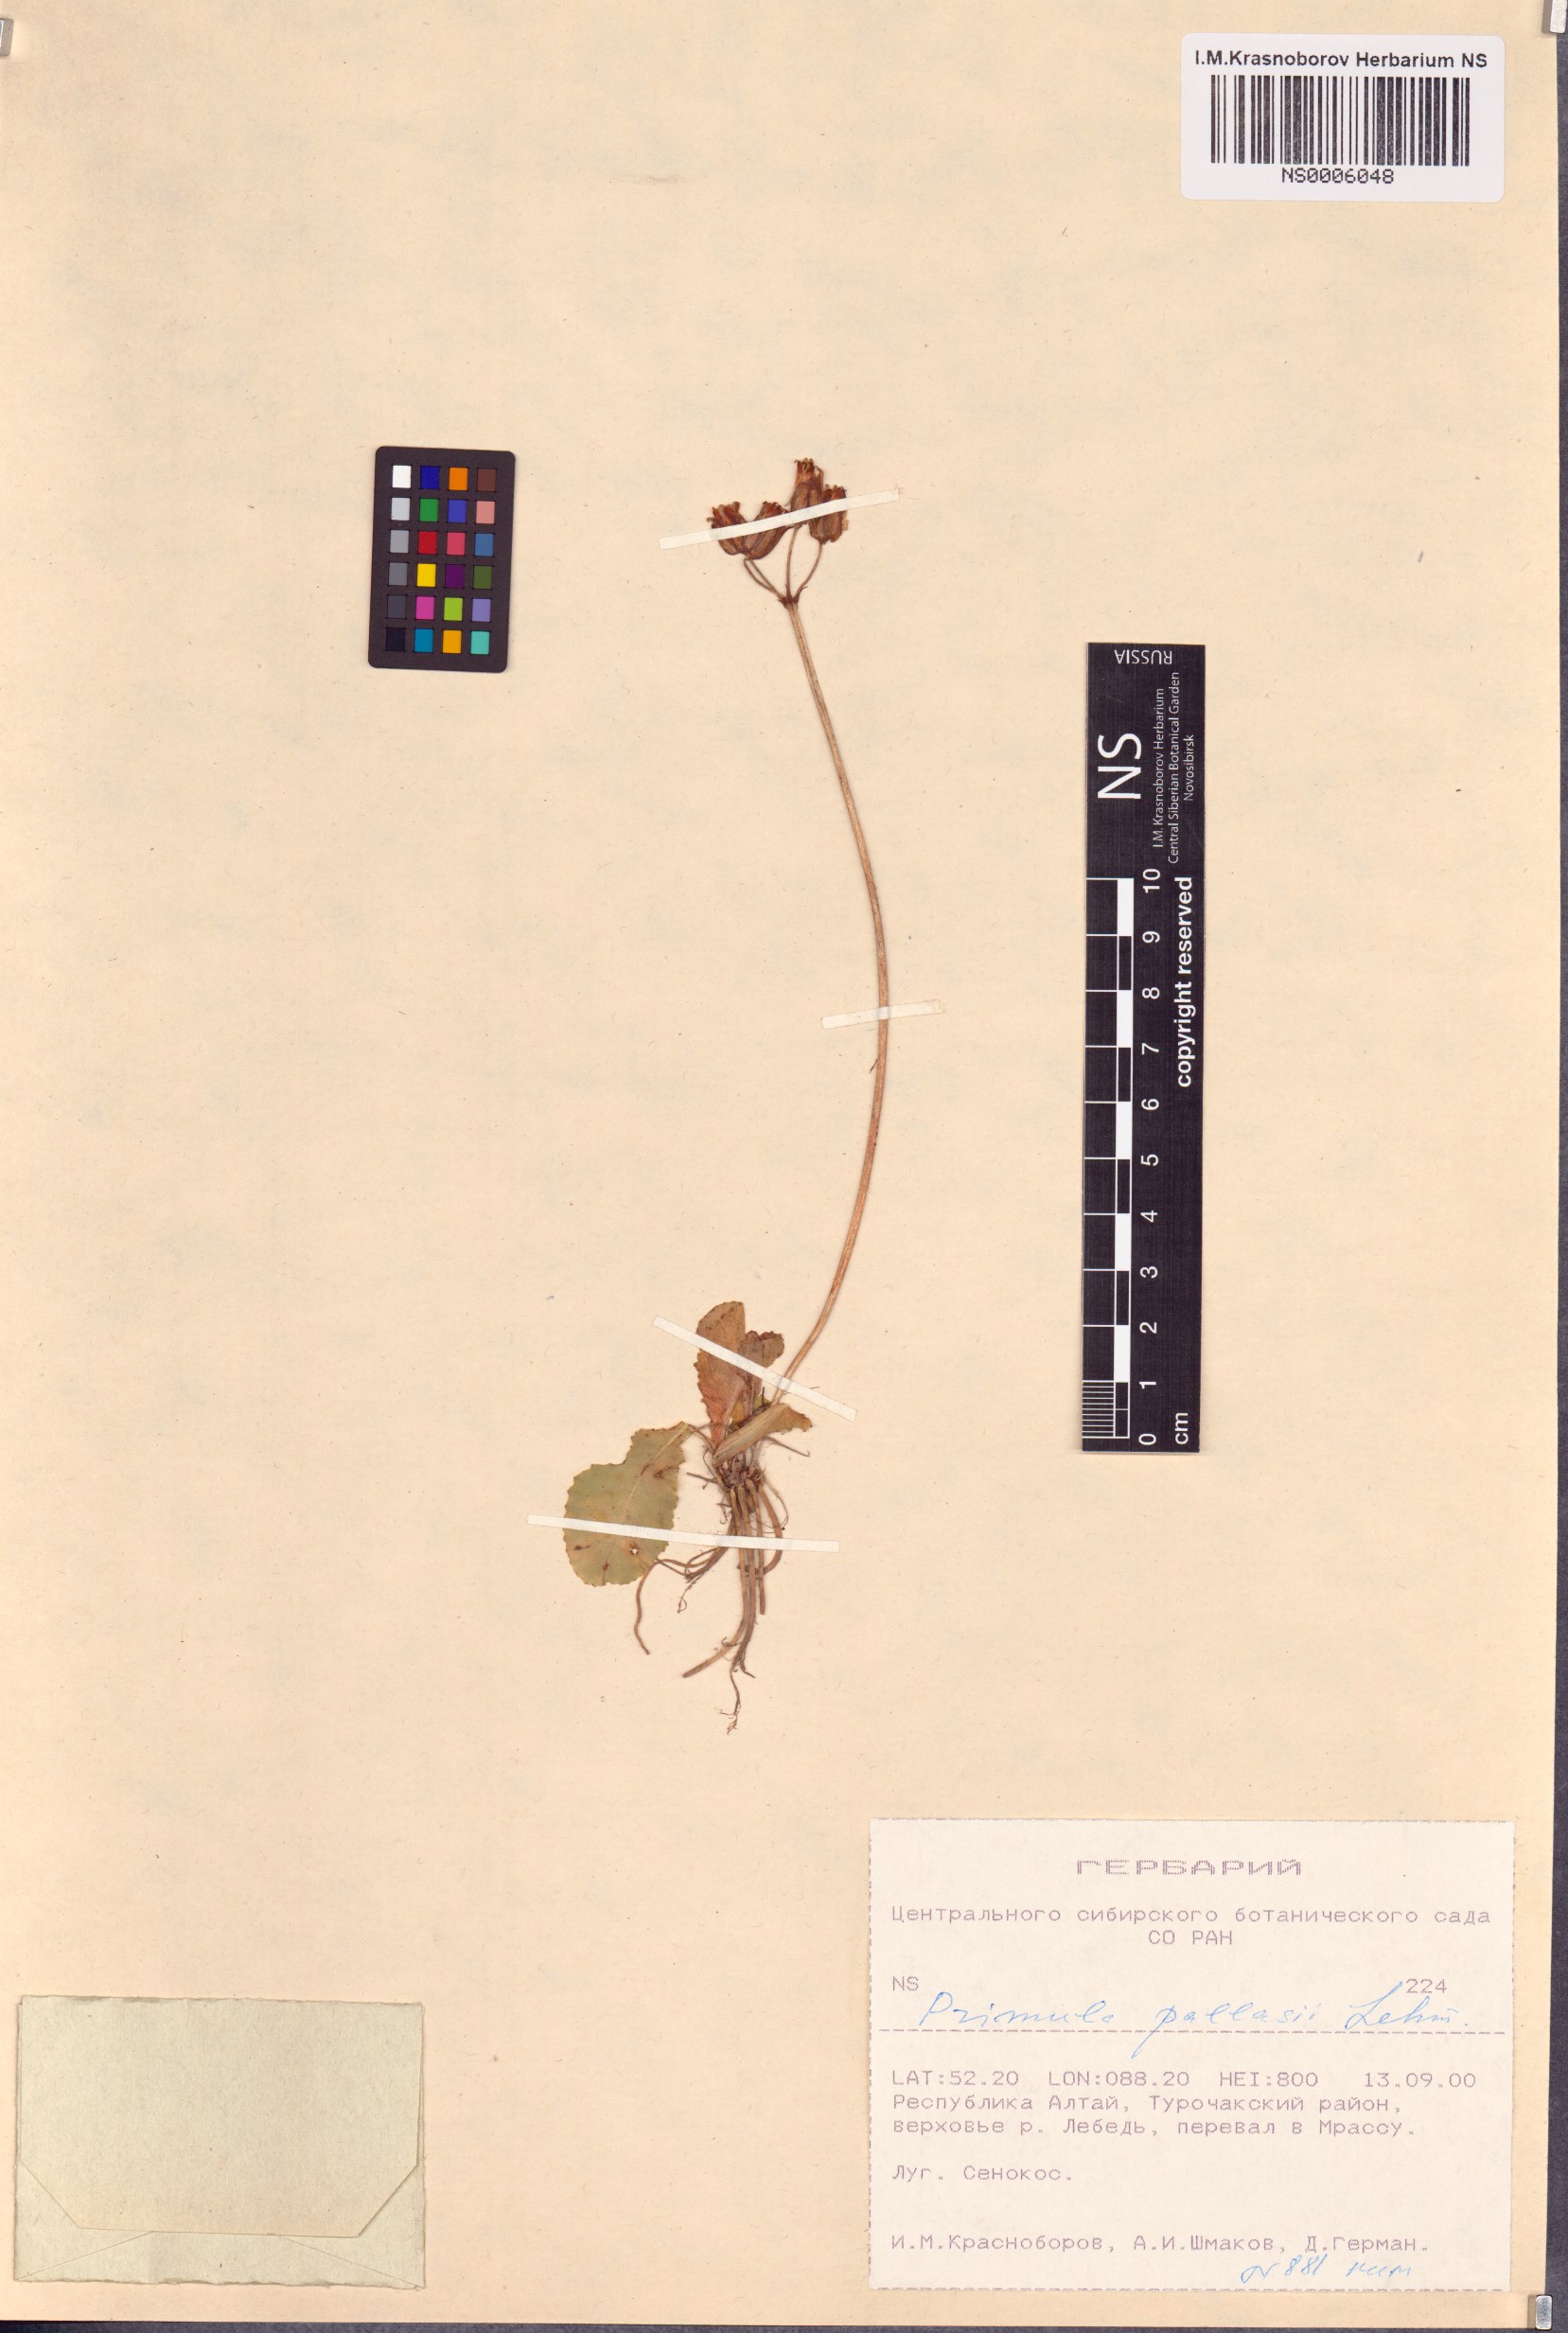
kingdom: Plantae
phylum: Tracheophyta
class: Magnoliopsida
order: Ericales
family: Primulaceae
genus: Primula
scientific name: Primula elatior
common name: Oxlip
